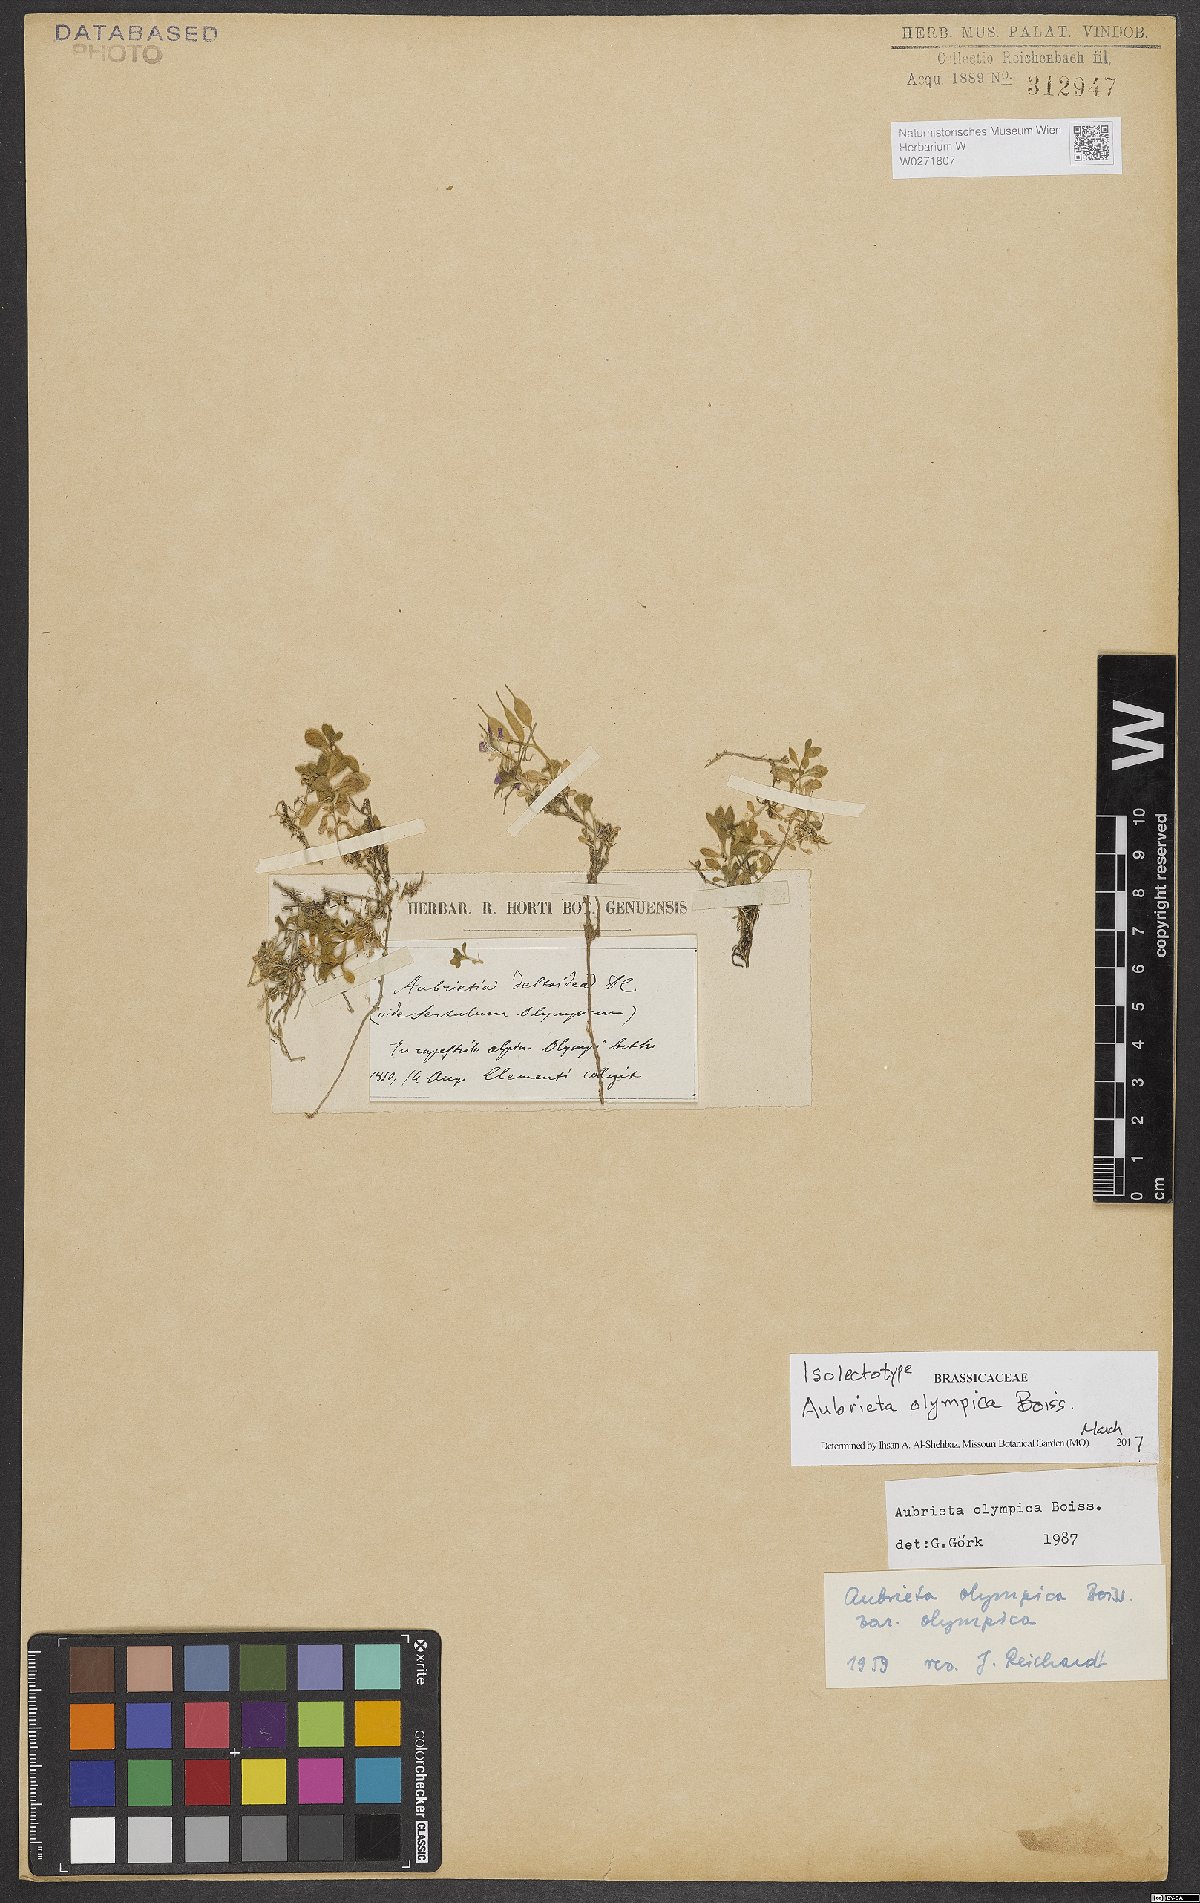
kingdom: Plantae
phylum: Tracheophyta
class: Magnoliopsida
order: Brassicales
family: Brassicaceae
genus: Aubrieta
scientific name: Aubrieta olympica
